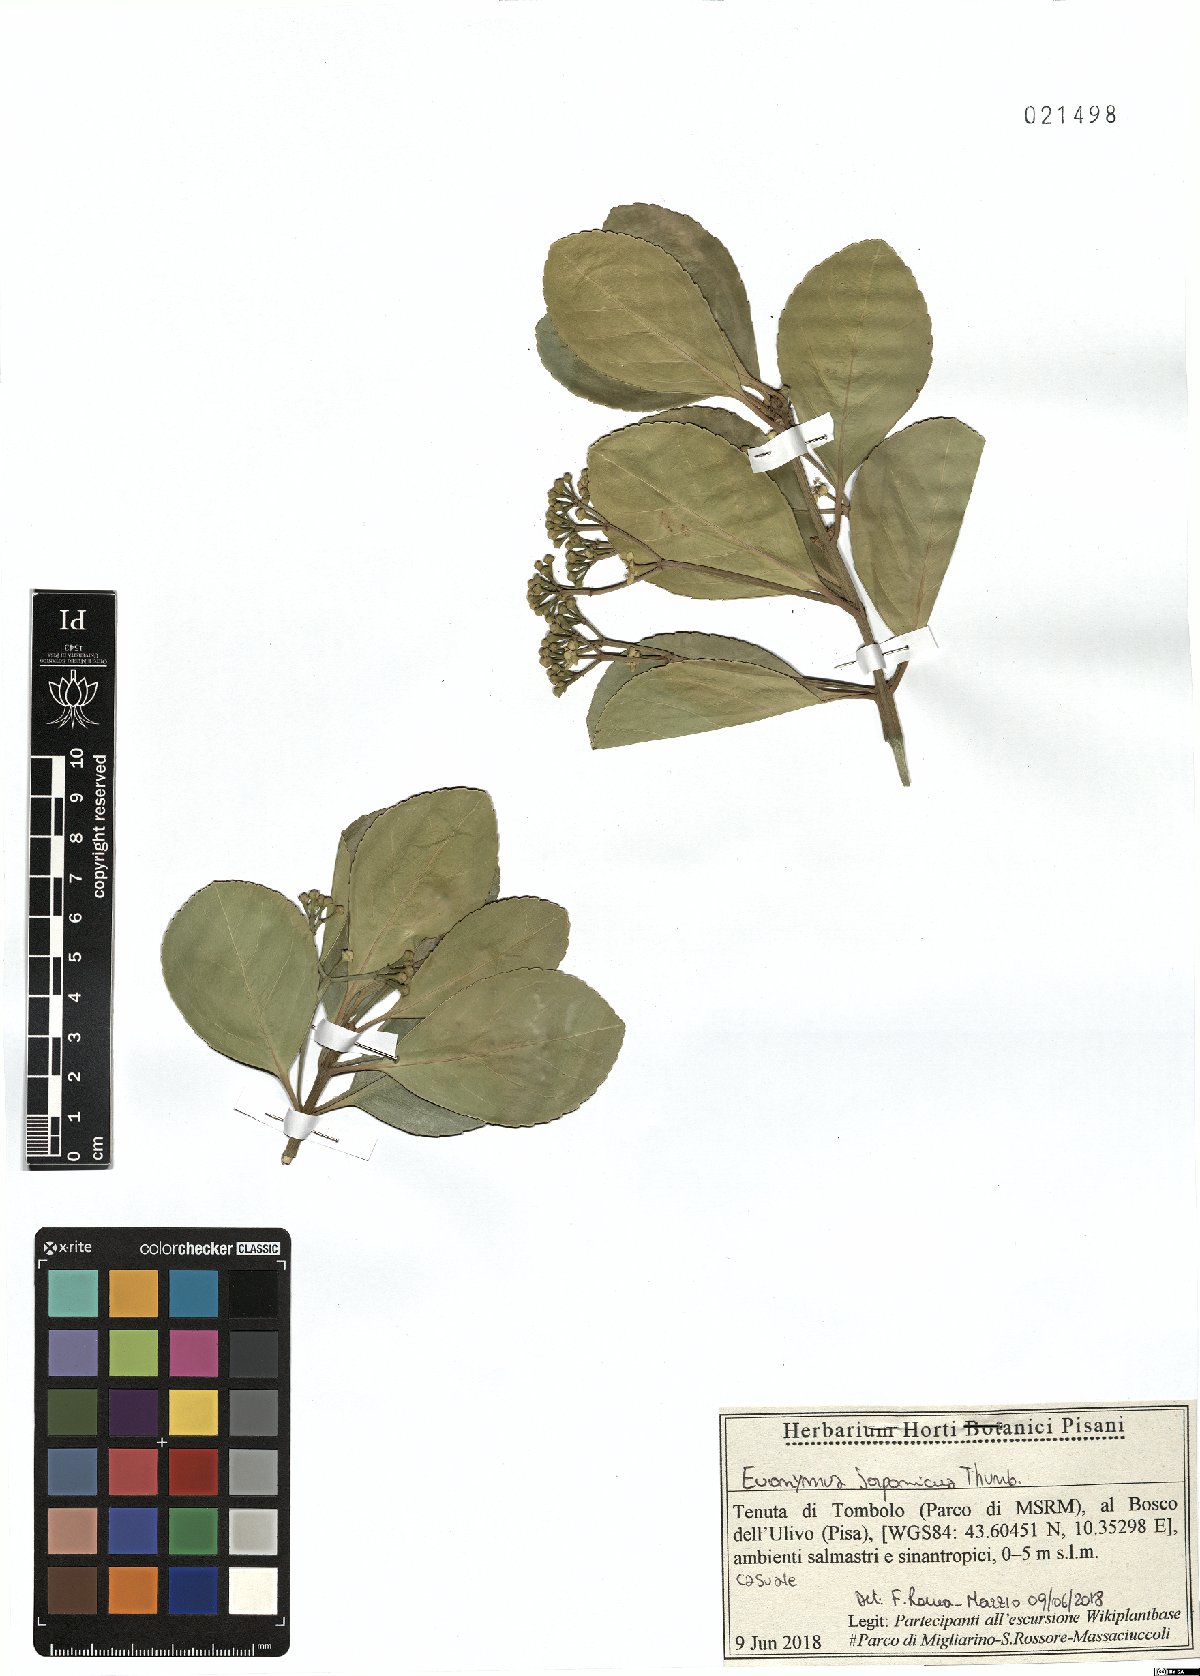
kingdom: Plantae
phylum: Tracheophyta
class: Magnoliopsida
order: Celastrales
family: Celastraceae
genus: Euonymus
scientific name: Euonymus fortunei
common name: Climbing euonymus
